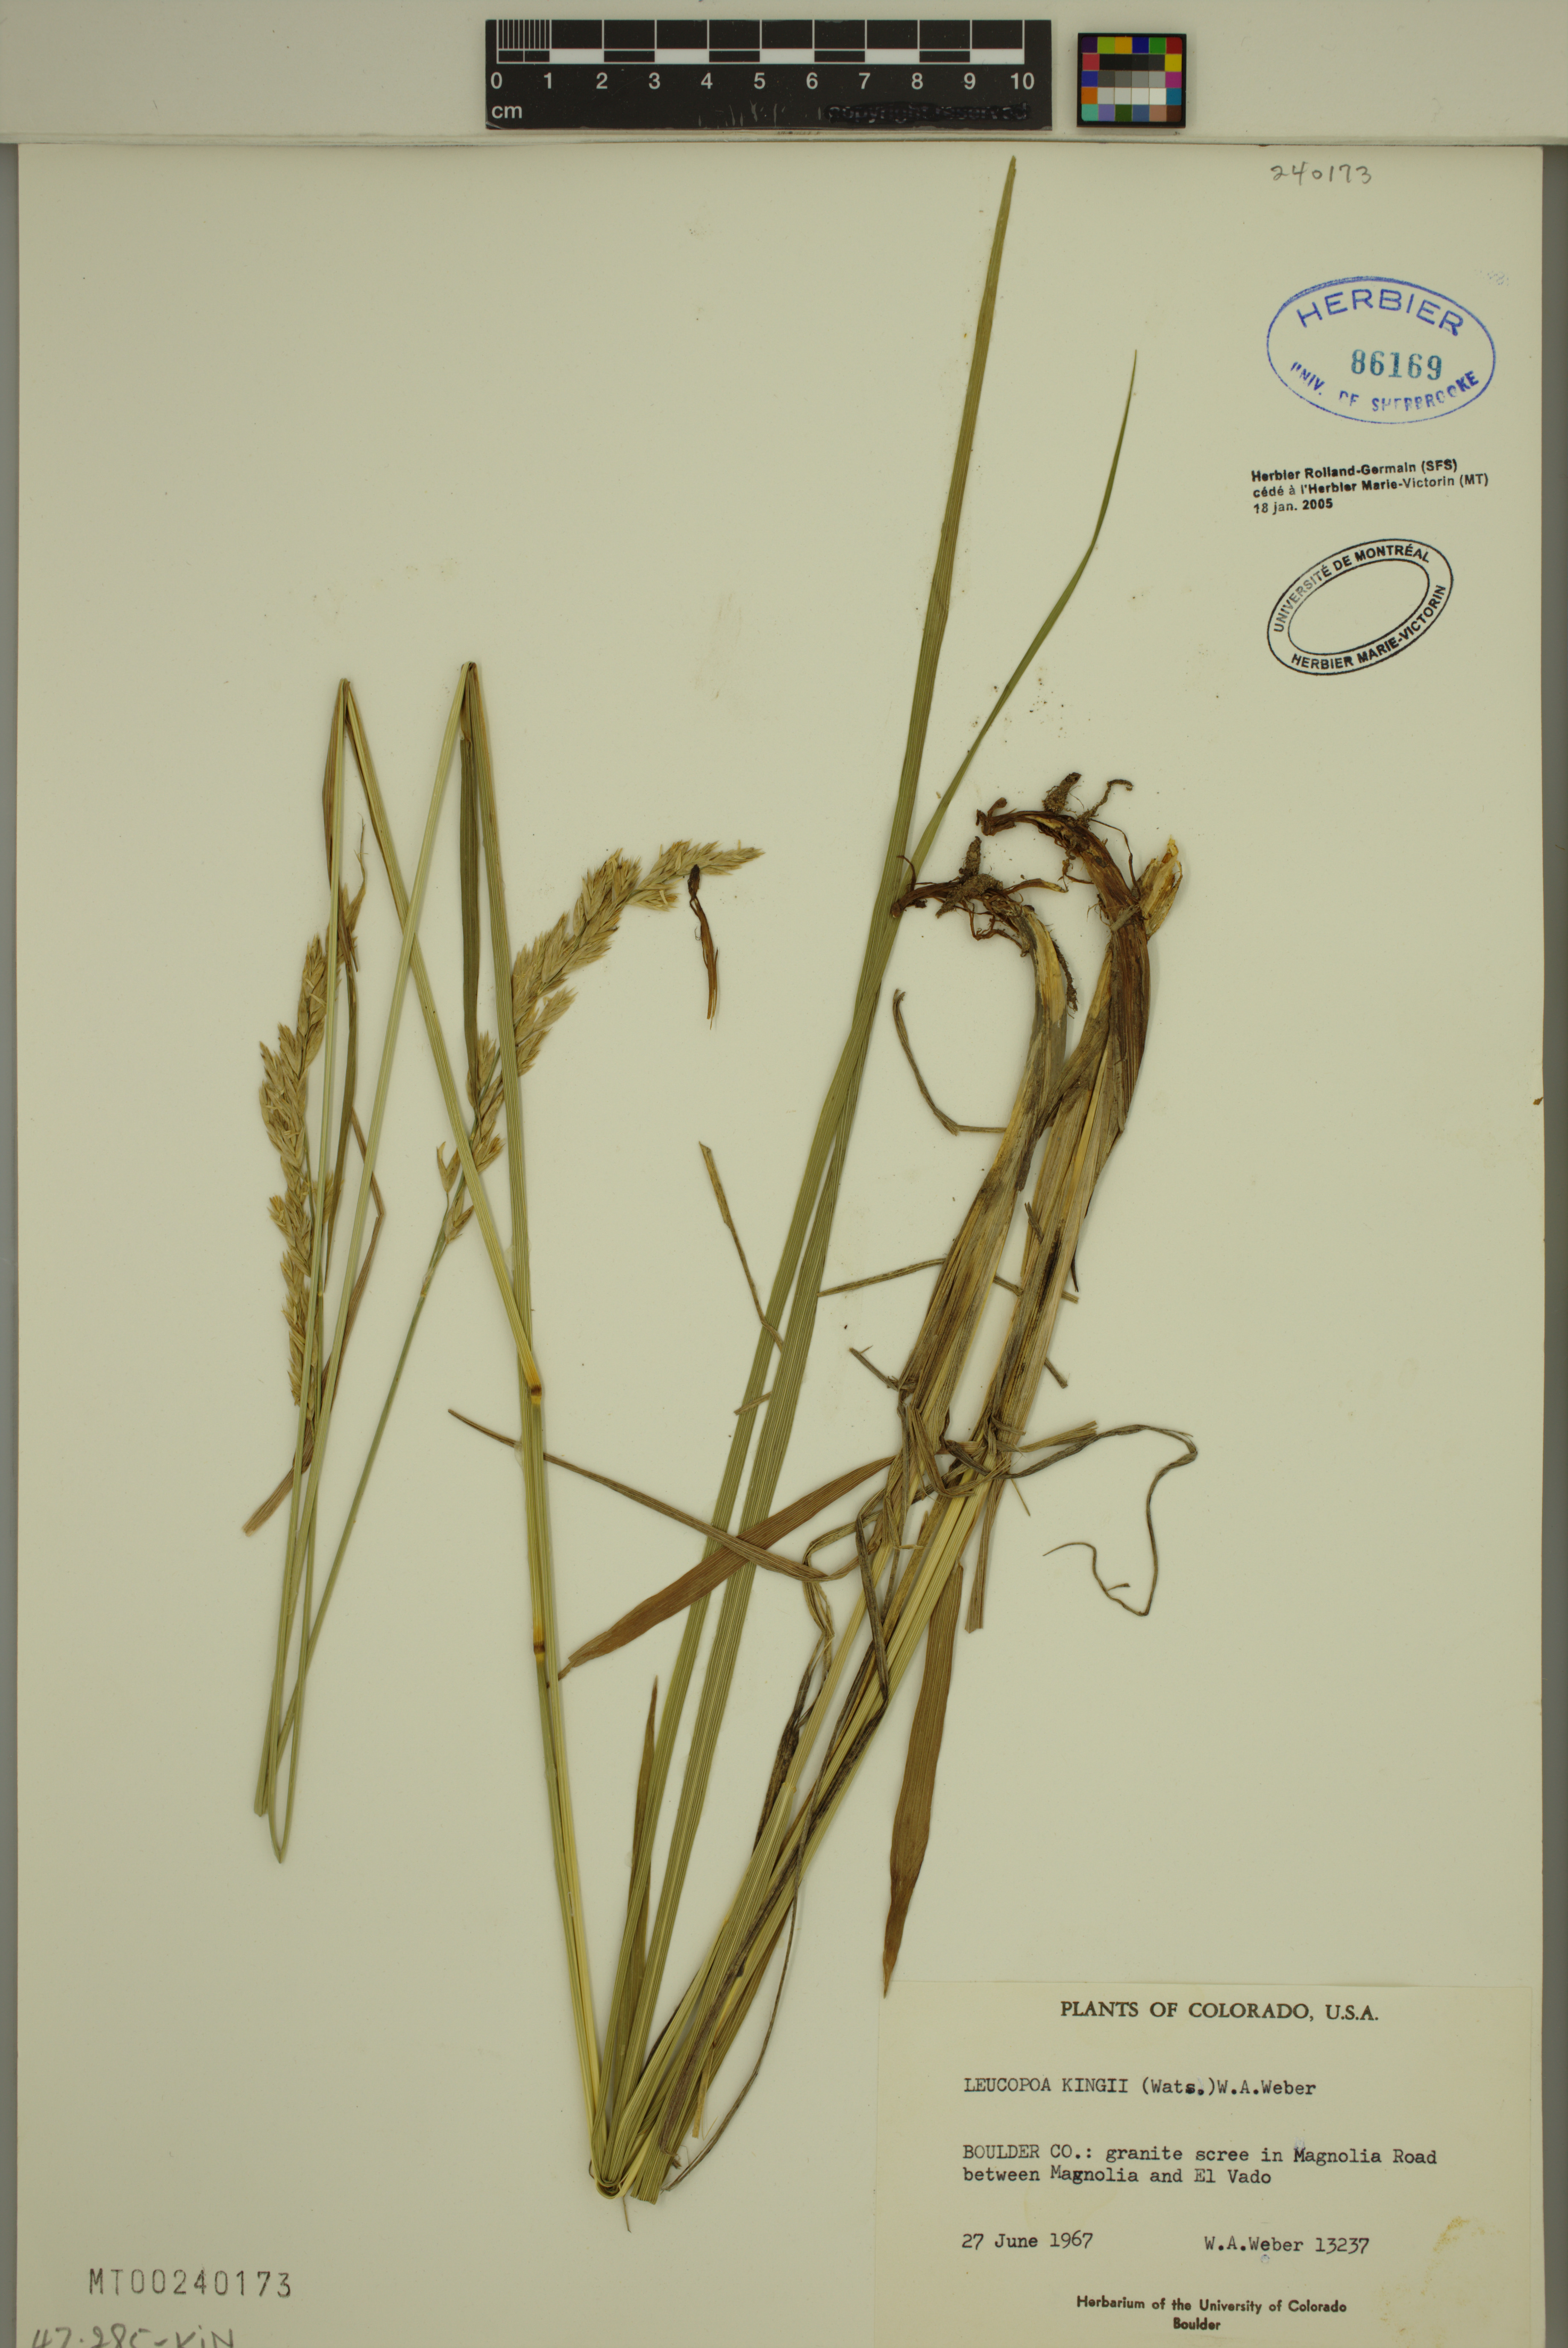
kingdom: Plantae
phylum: Tracheophyta
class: Liliopsida
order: Poales
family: Poaceae
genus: Festuca
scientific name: Festuca kingii
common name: Spike fescue
